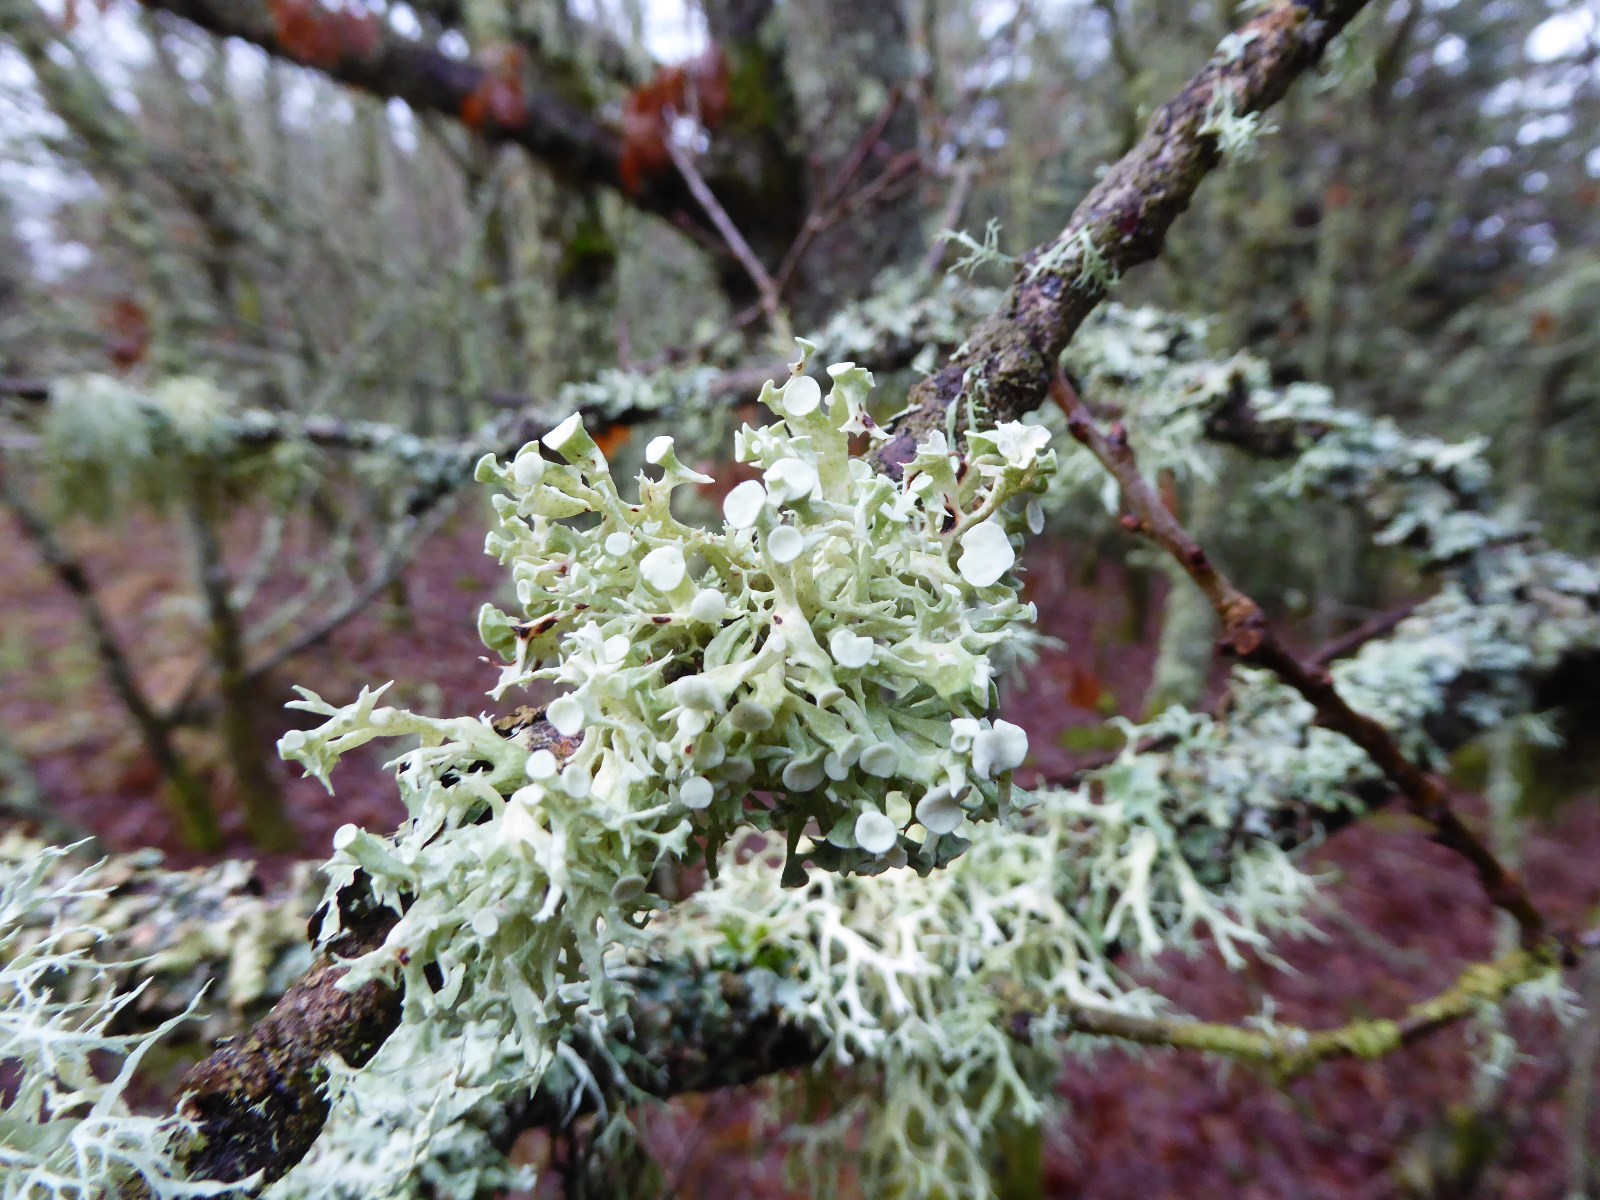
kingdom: Fungi
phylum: Ascomycota
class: Lecanoromycetes
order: Lecanorales
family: Ramalinaceae
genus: Ramalina
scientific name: Ramalina fastigiata
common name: tue-grenlav
